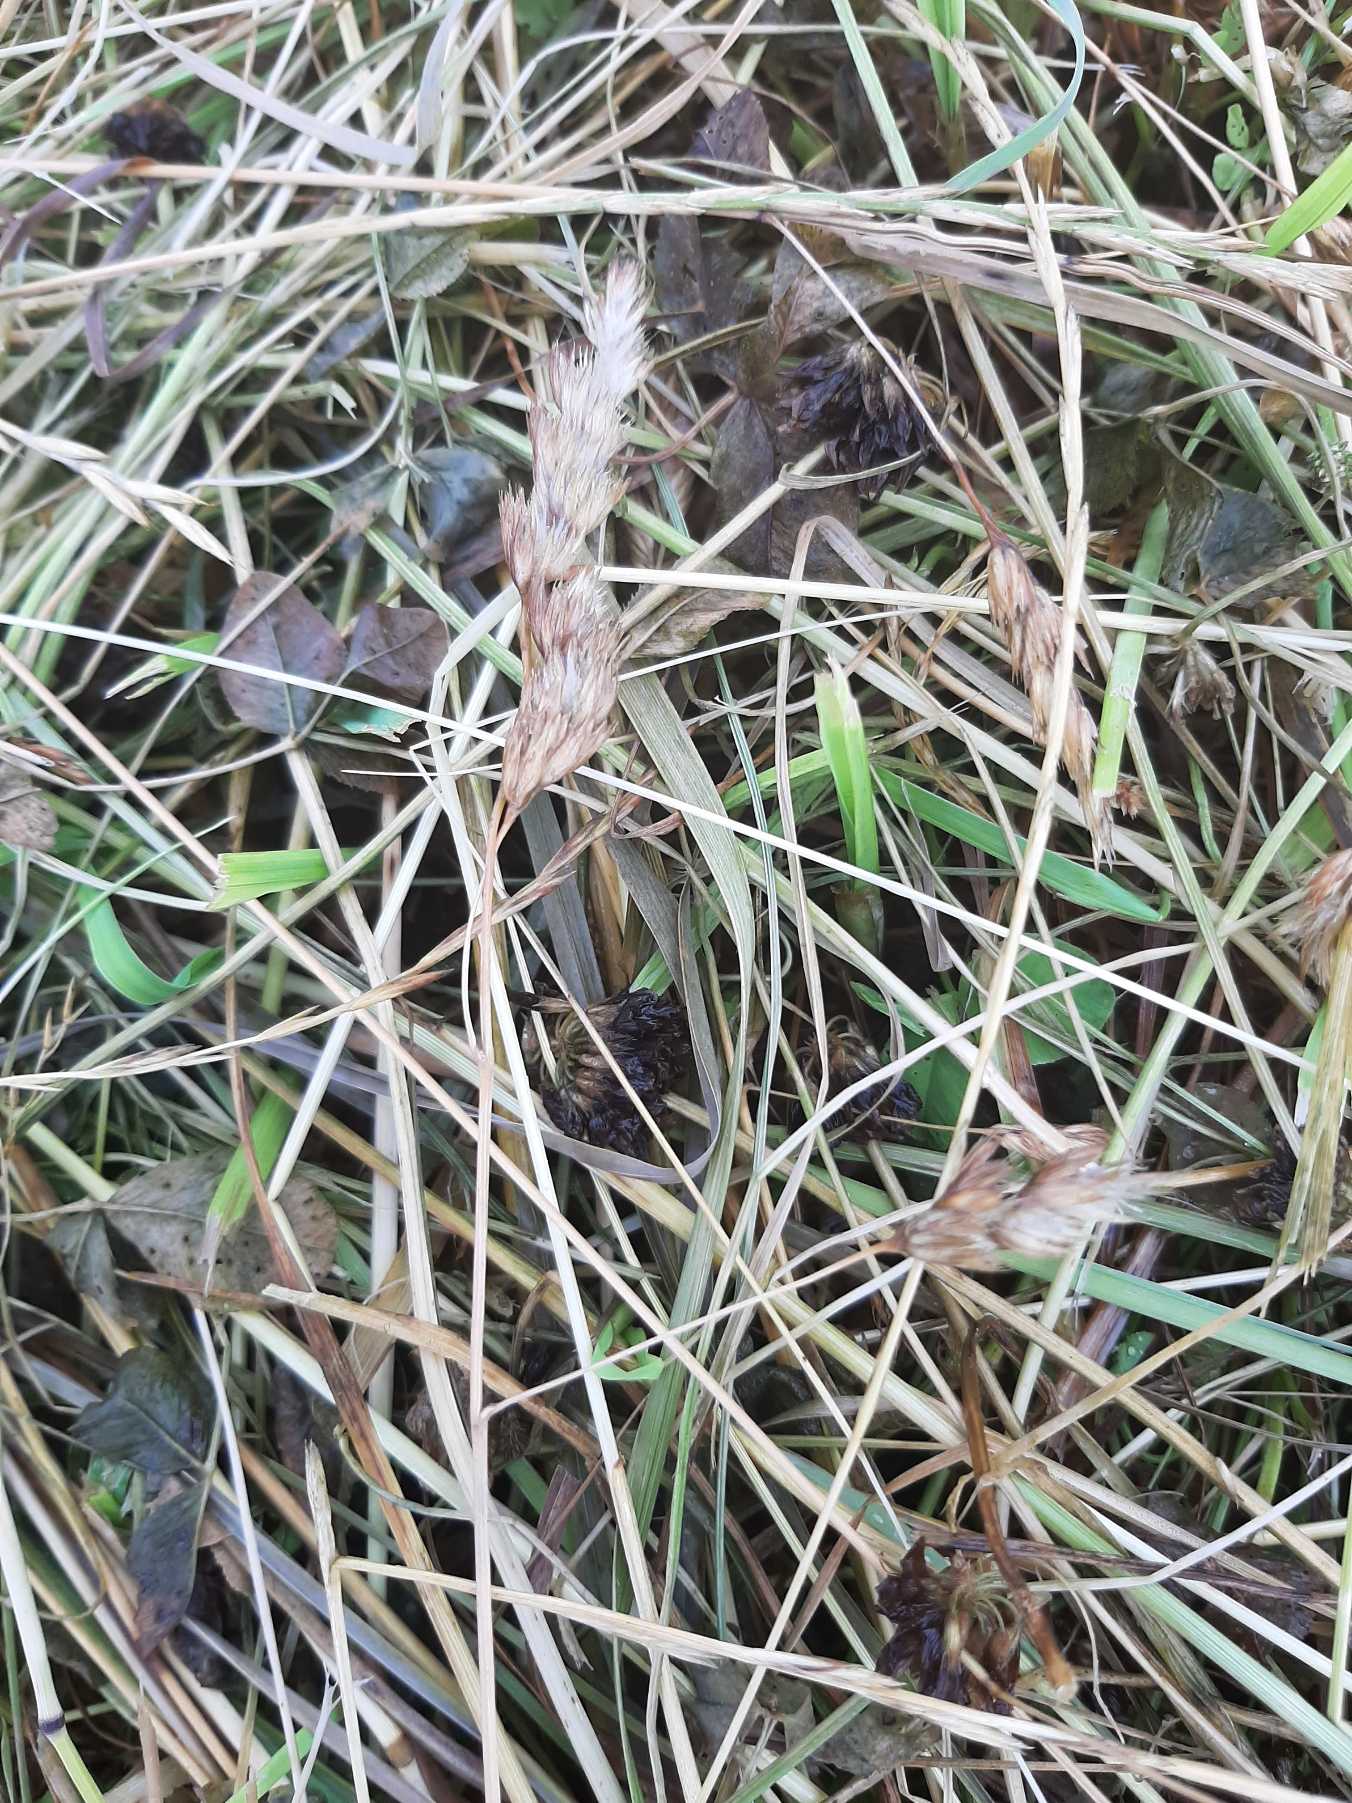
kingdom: Plantae
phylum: Tracheophyta
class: Liliopsida
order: Poales
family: Poaceae
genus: Dactylis
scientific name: Dactylis glomerata
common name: Almindelig hundegræs
